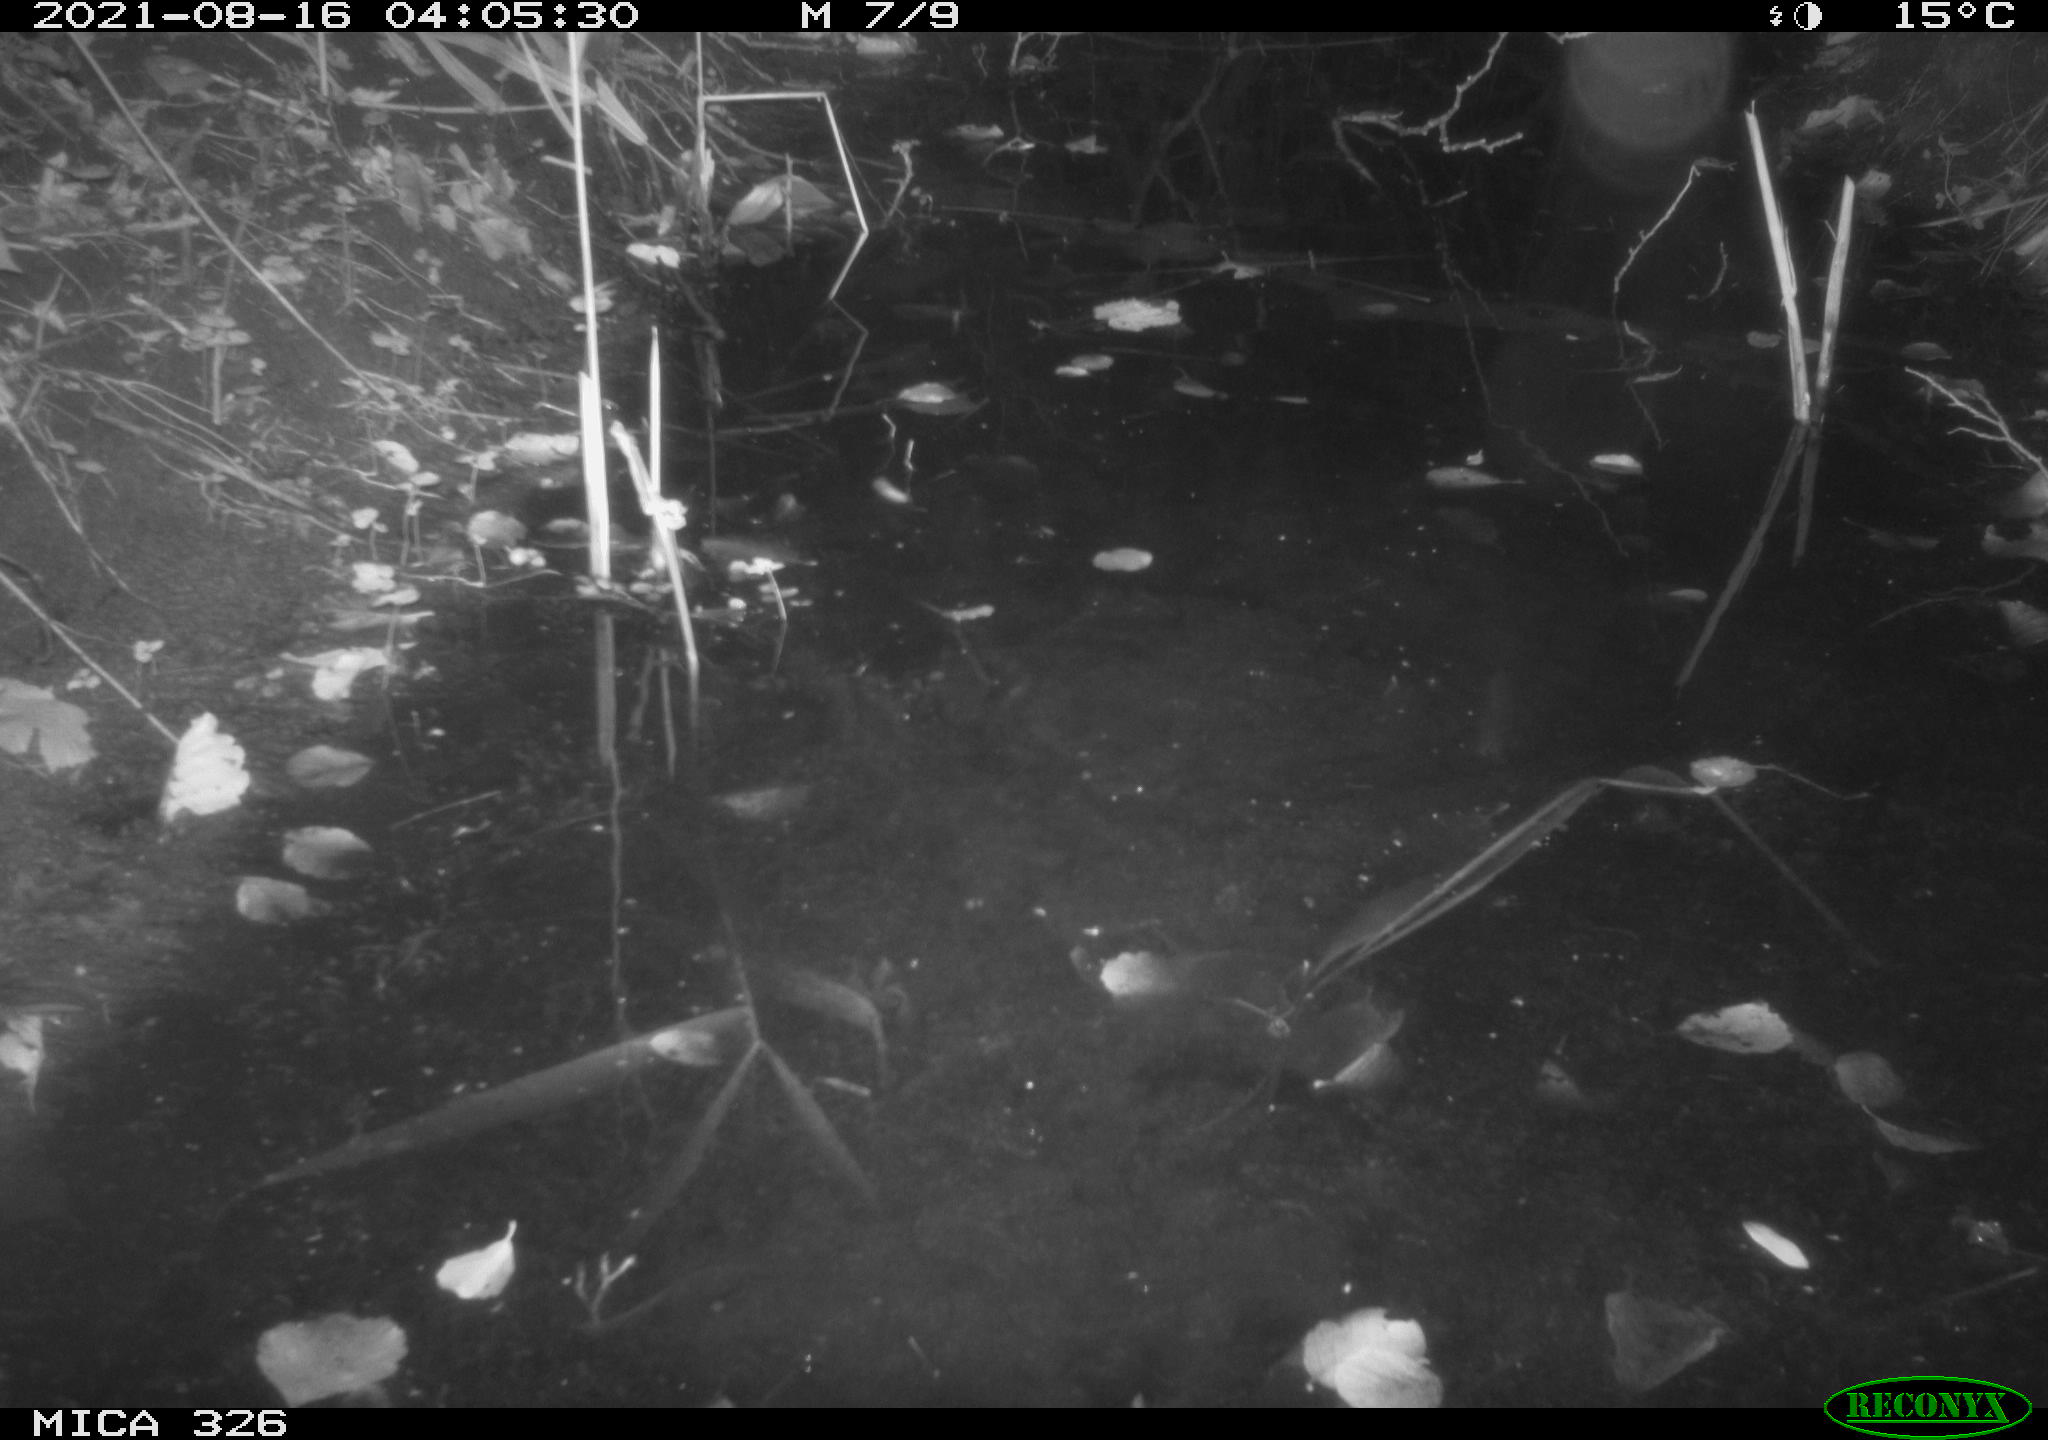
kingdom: Animalia
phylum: Chordata
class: Mammalia
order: Rodentia
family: Myocastoridae
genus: Myocastor
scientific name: Myocastor coypus
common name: Coypu
